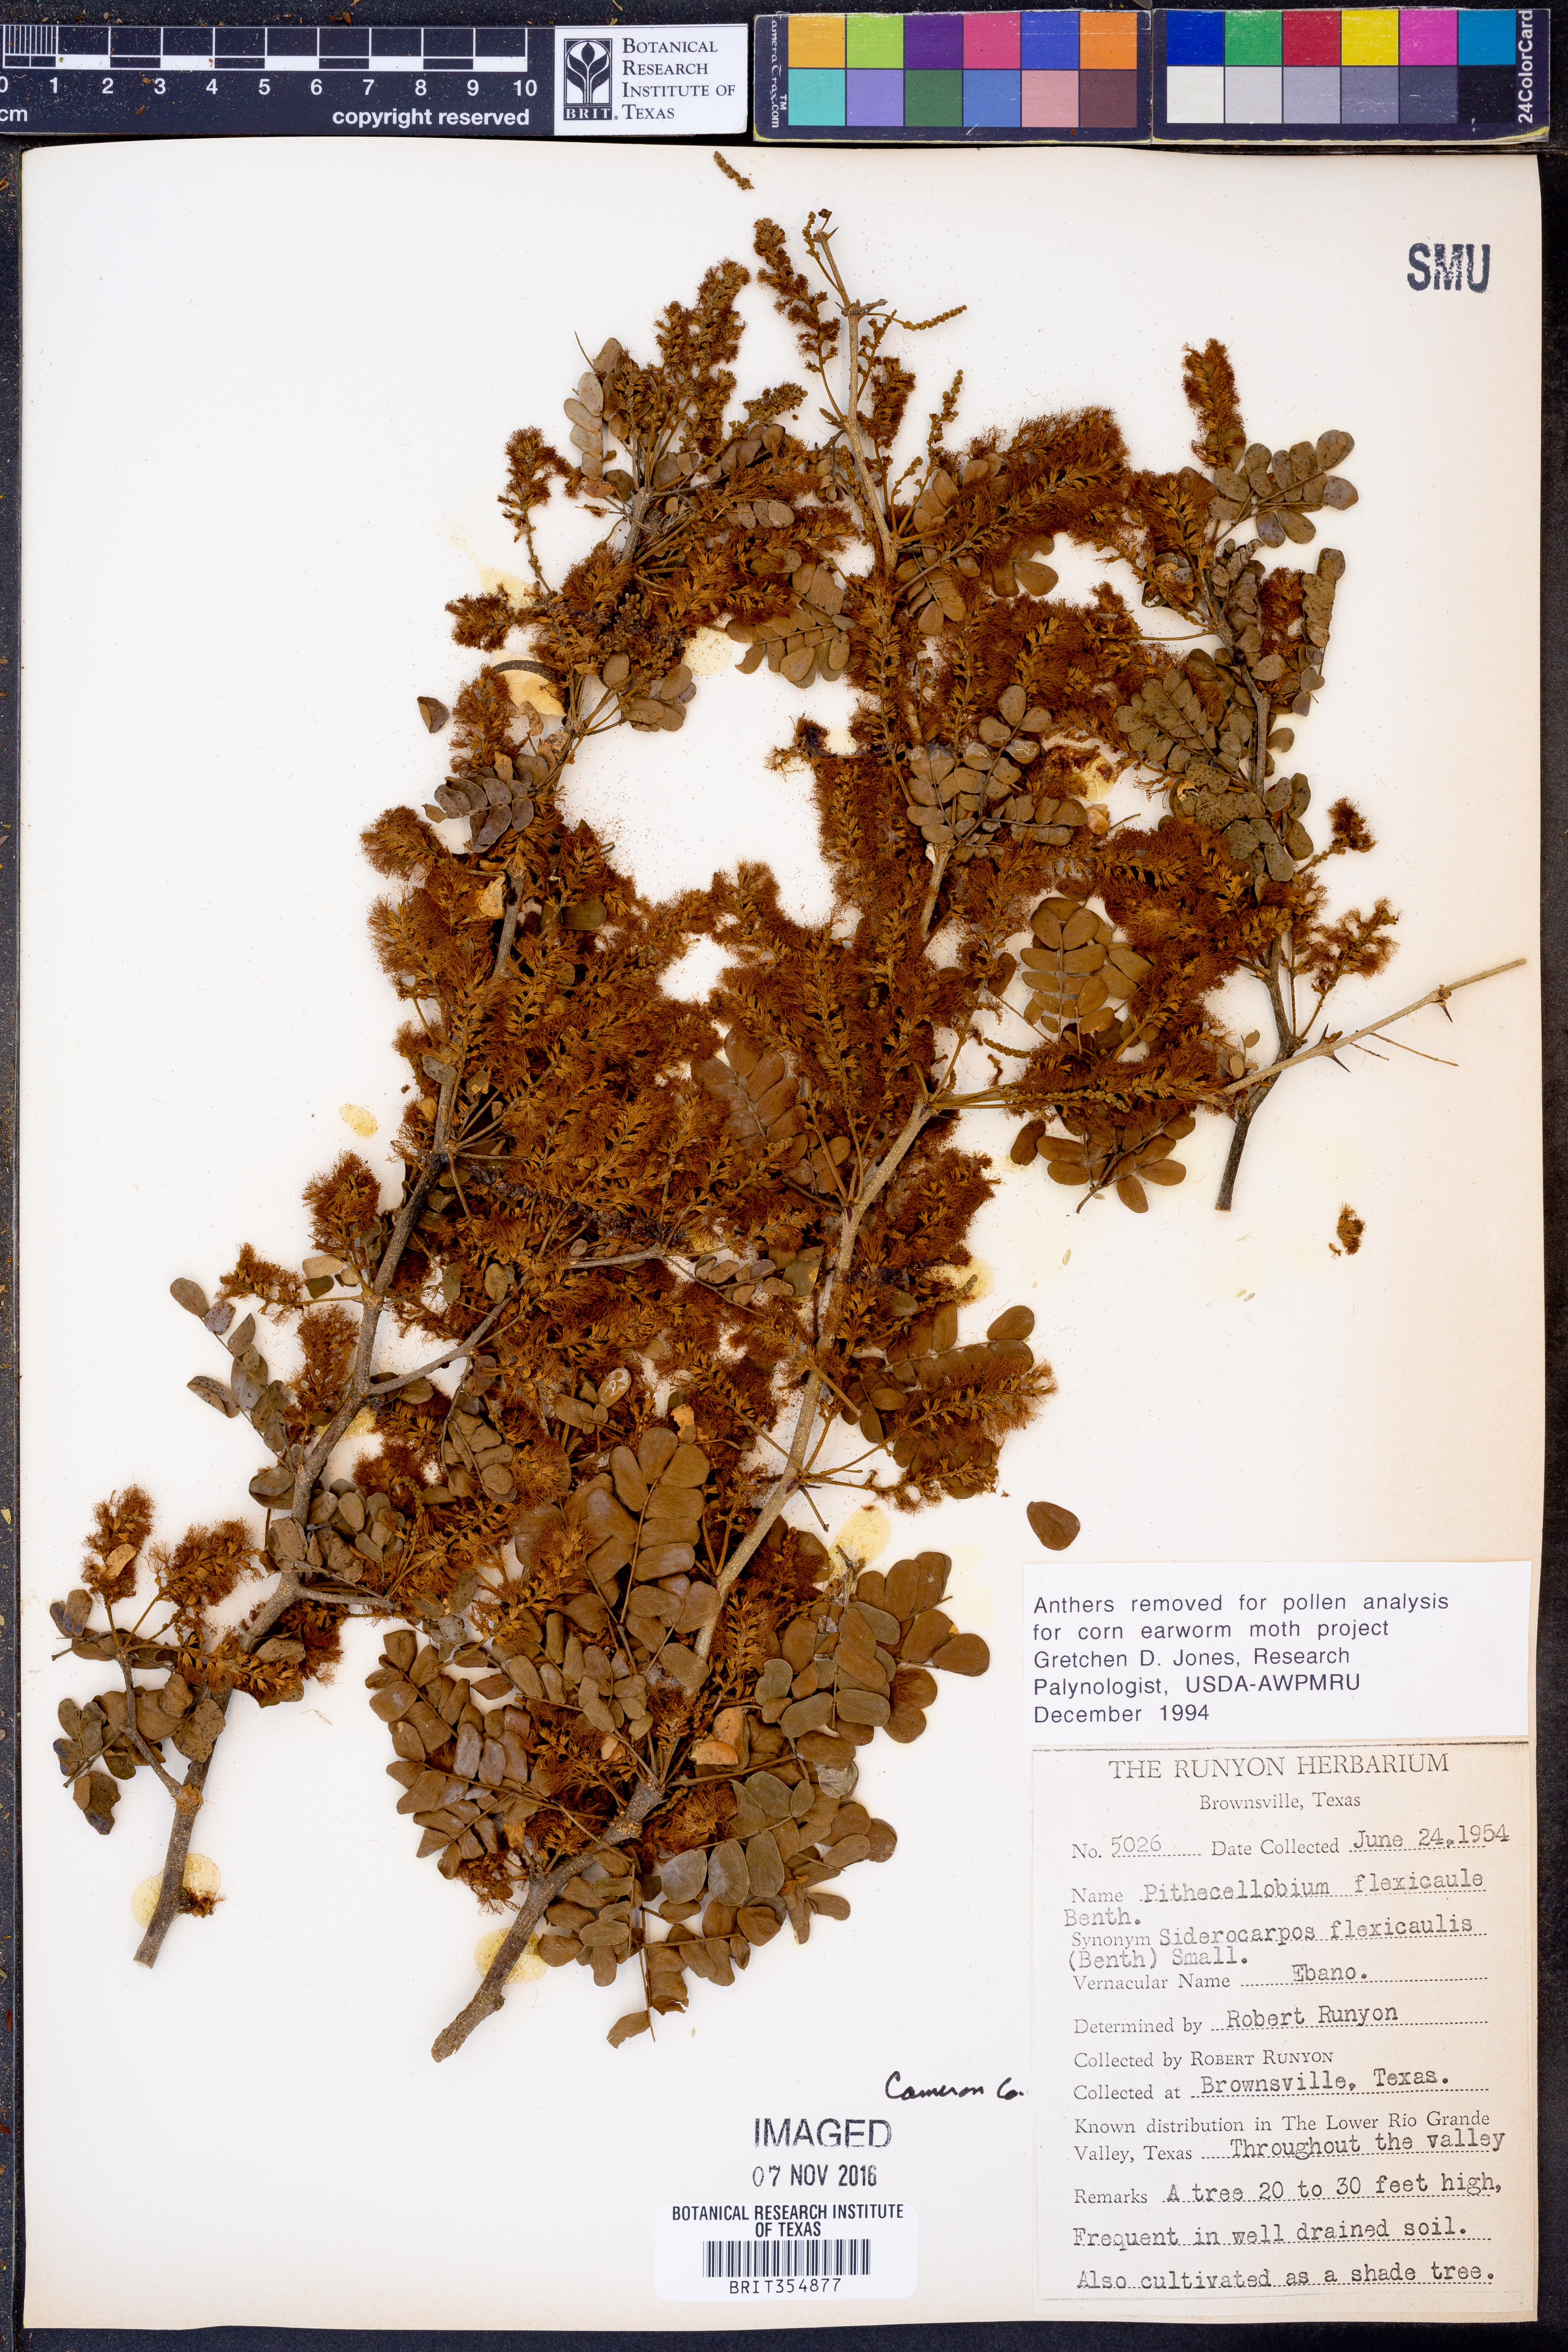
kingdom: Plantae
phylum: Tracheophyta
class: Magnoliopsida
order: Fabales
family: Fabaceae
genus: Ebenopsis
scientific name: Ebenopsis ebano
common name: Ebony blackbead
